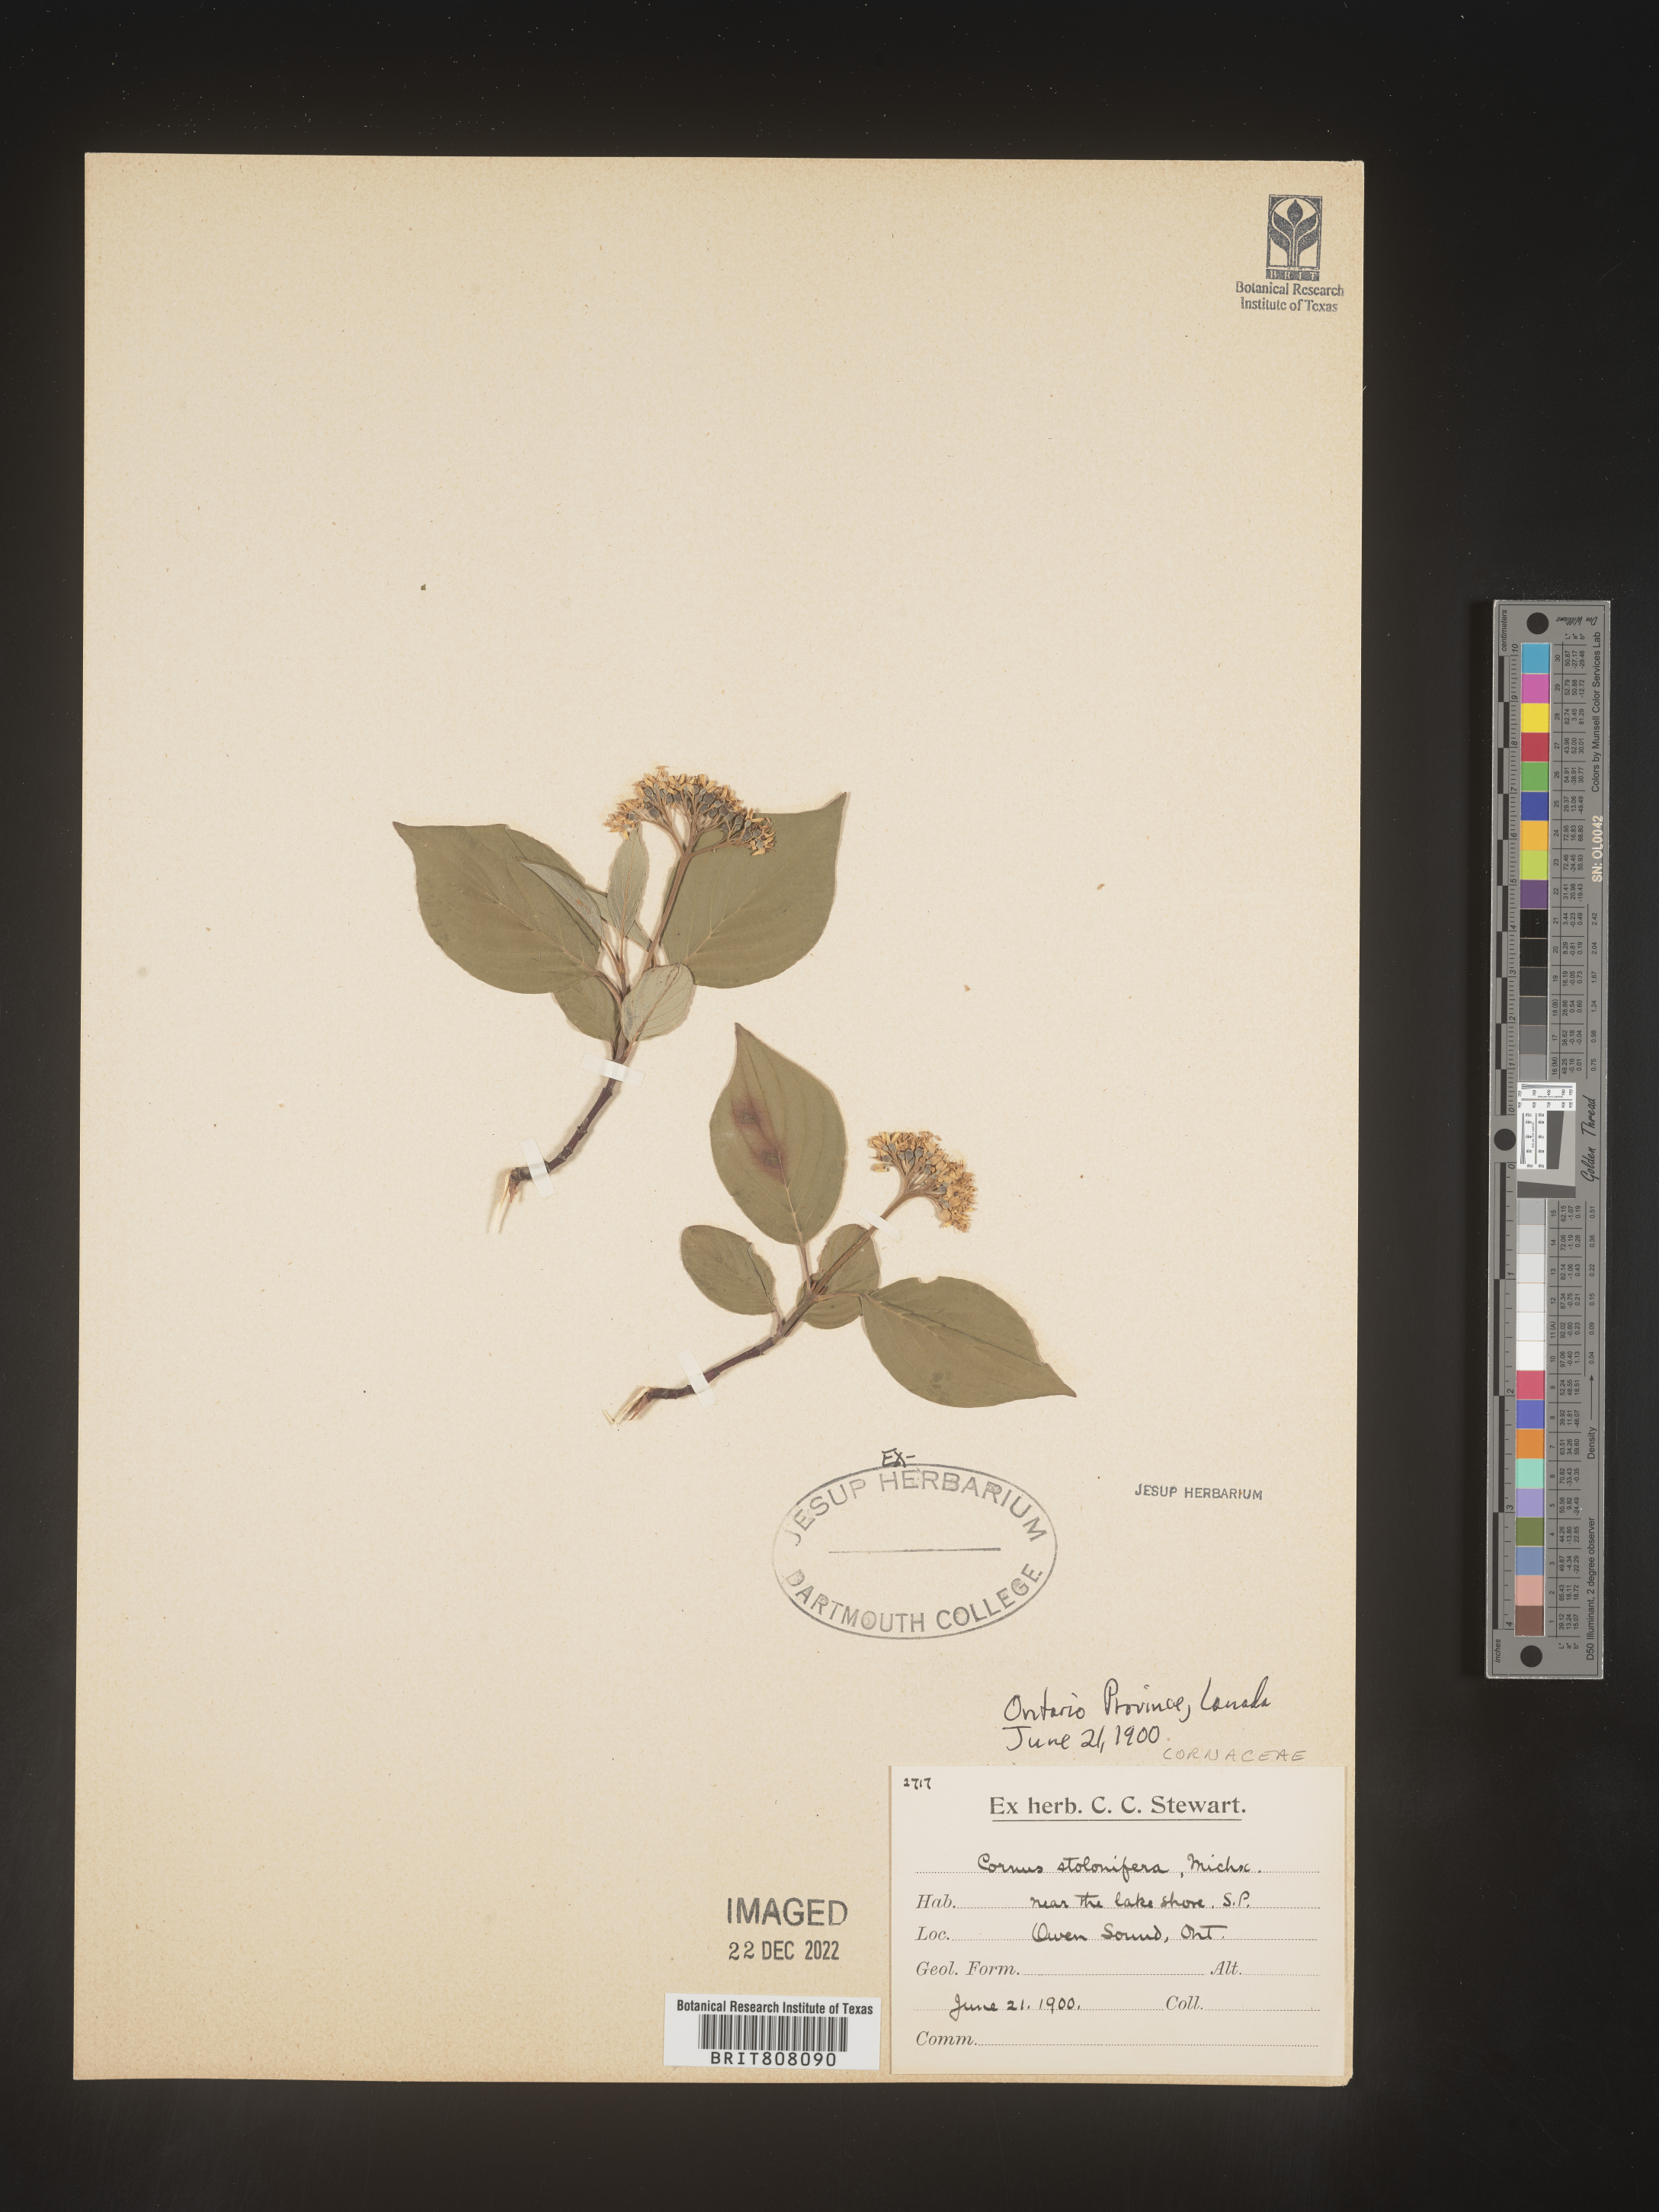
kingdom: Plantae
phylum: Tracheophyta
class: Magnoliopsida
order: Cornales
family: Cornaceae
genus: Cornus
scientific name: Cornus sericea
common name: Red-osier dogwood
